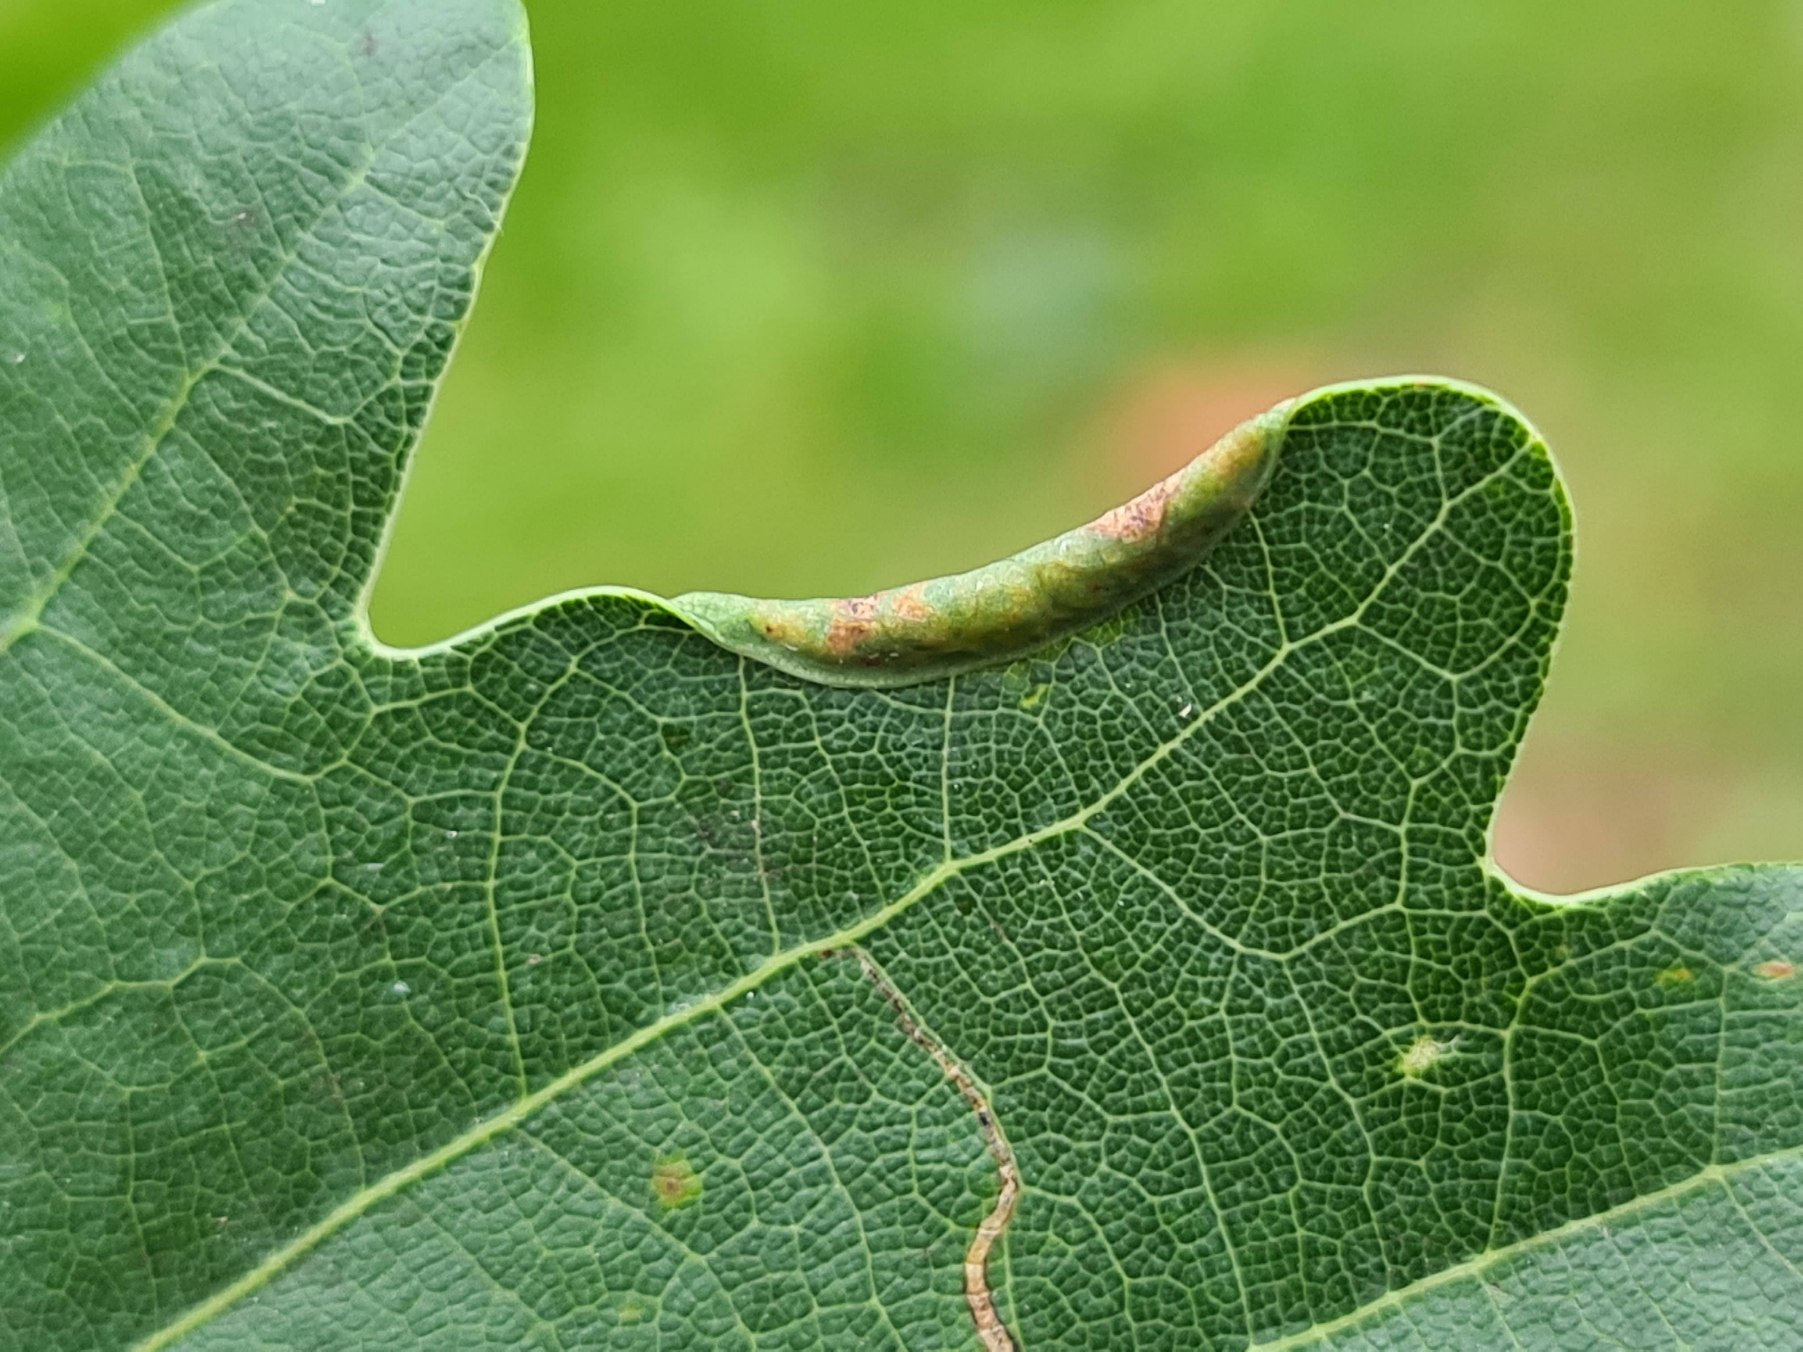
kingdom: Animalia
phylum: Arthropoda
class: Insecta
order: Diptera
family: Cecidomyiidae
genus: Macrodiplosis
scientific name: Macrodiplosis volvens
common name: Egerullegalmyg
